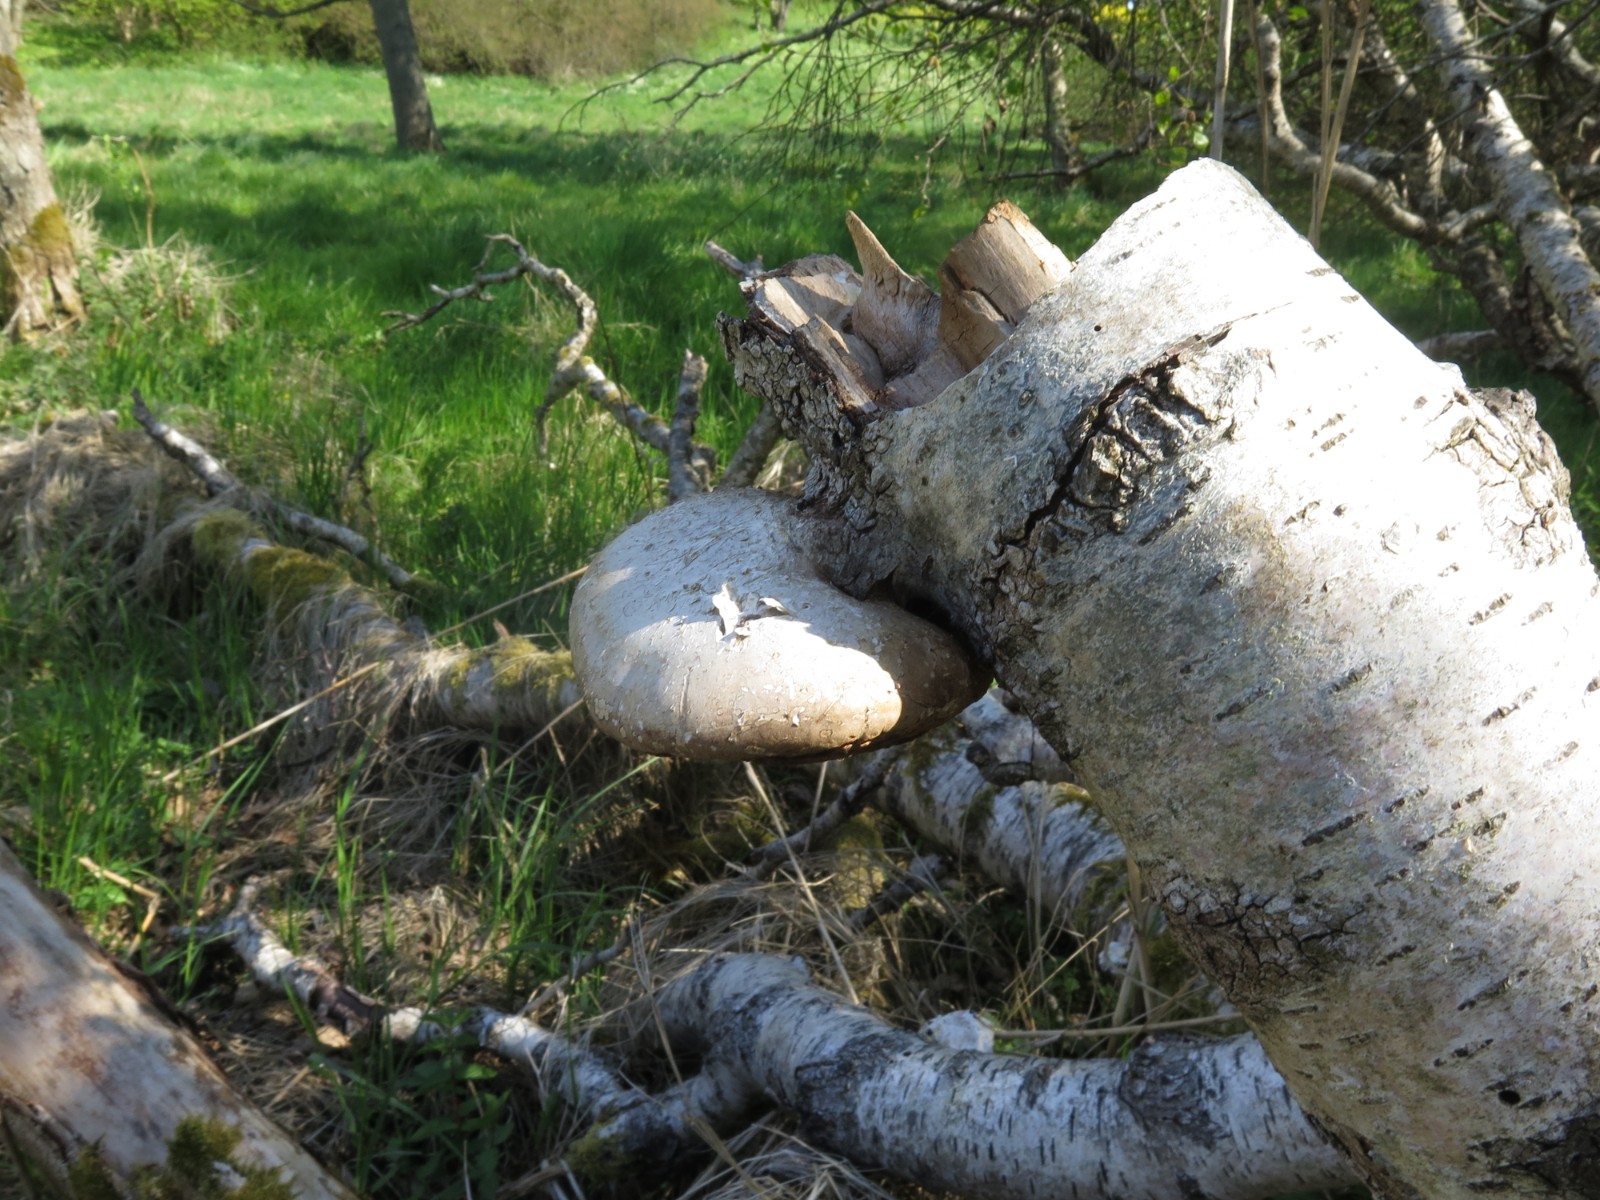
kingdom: Fungi
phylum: Basidiomycota
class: Agaricomycetes
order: Polyporales
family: Fomitopsidaceae
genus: Fomitopsis
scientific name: Fomitopsis betulina
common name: birkeporesvamp
